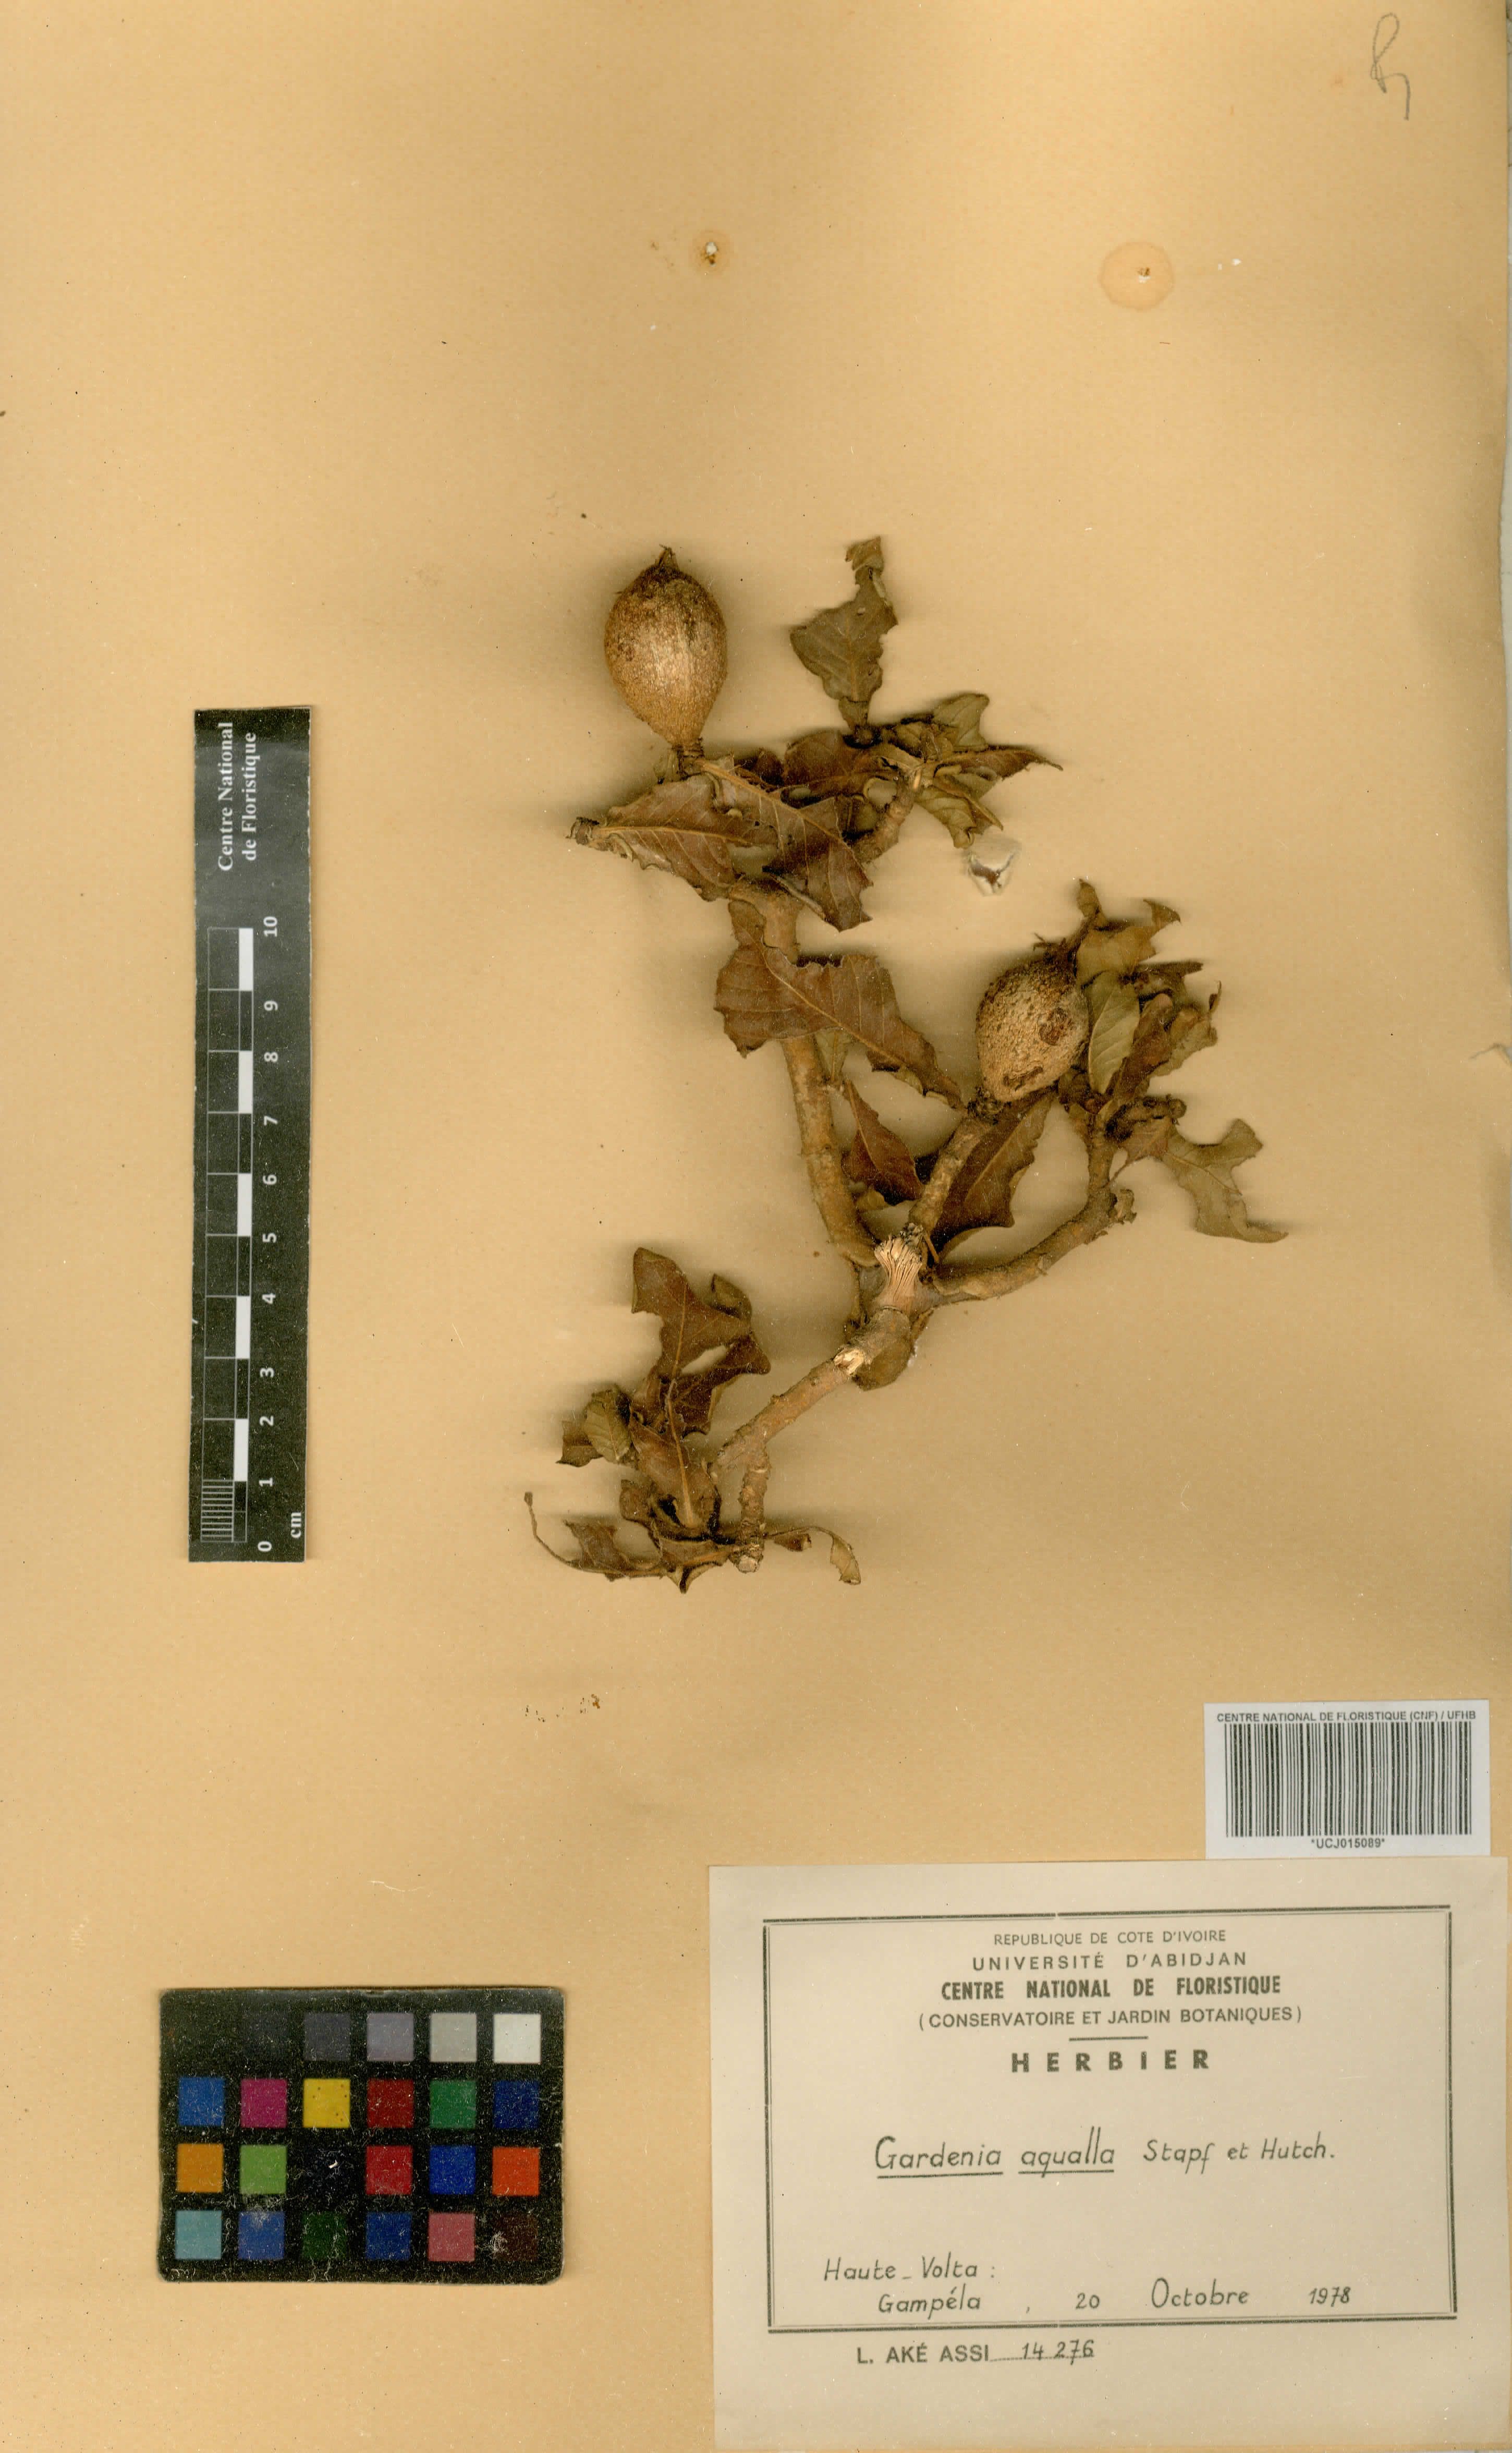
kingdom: Plantae
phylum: Tracheophyta
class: Magnoliopsida
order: Gentianales
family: Rubiaceae
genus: Gardenia
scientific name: Gardenia aqualla
